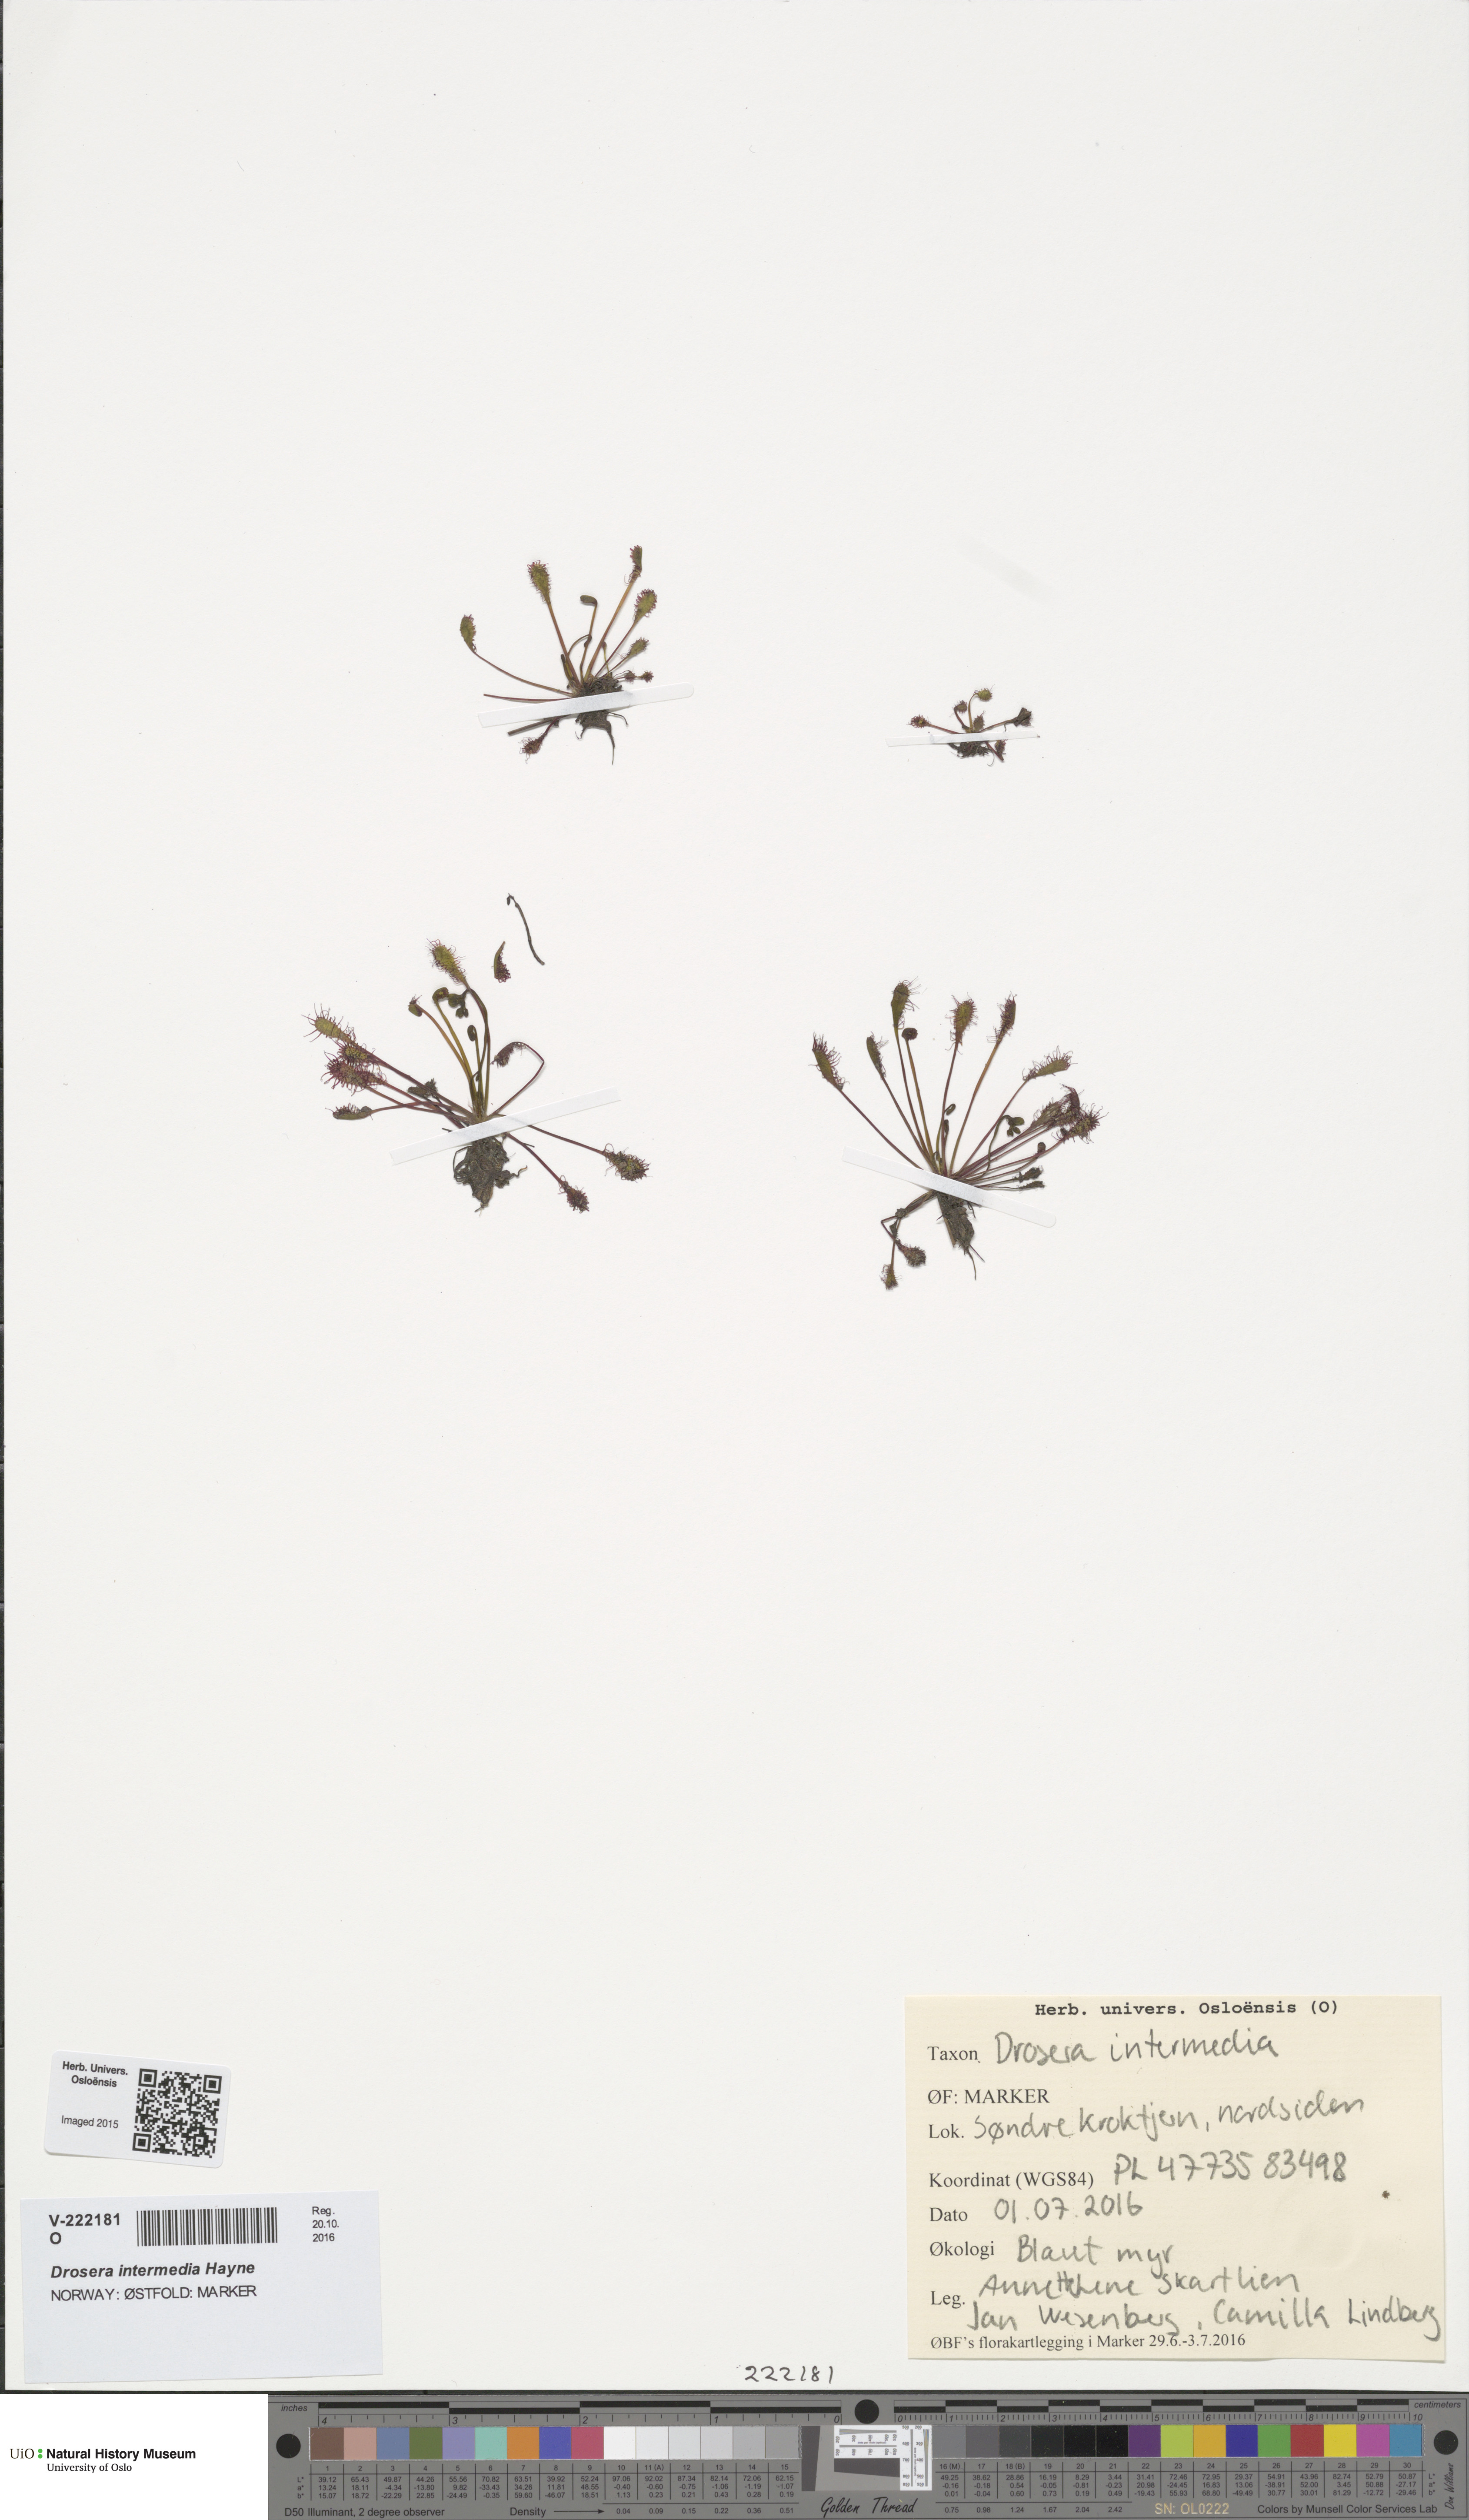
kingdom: Plantae
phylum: Tracheophyta
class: Magnoliopsida
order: Caryophyllales
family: Droseraceae
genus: Drosera
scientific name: Drosera intermedia
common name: Oblong-leaved sundew
